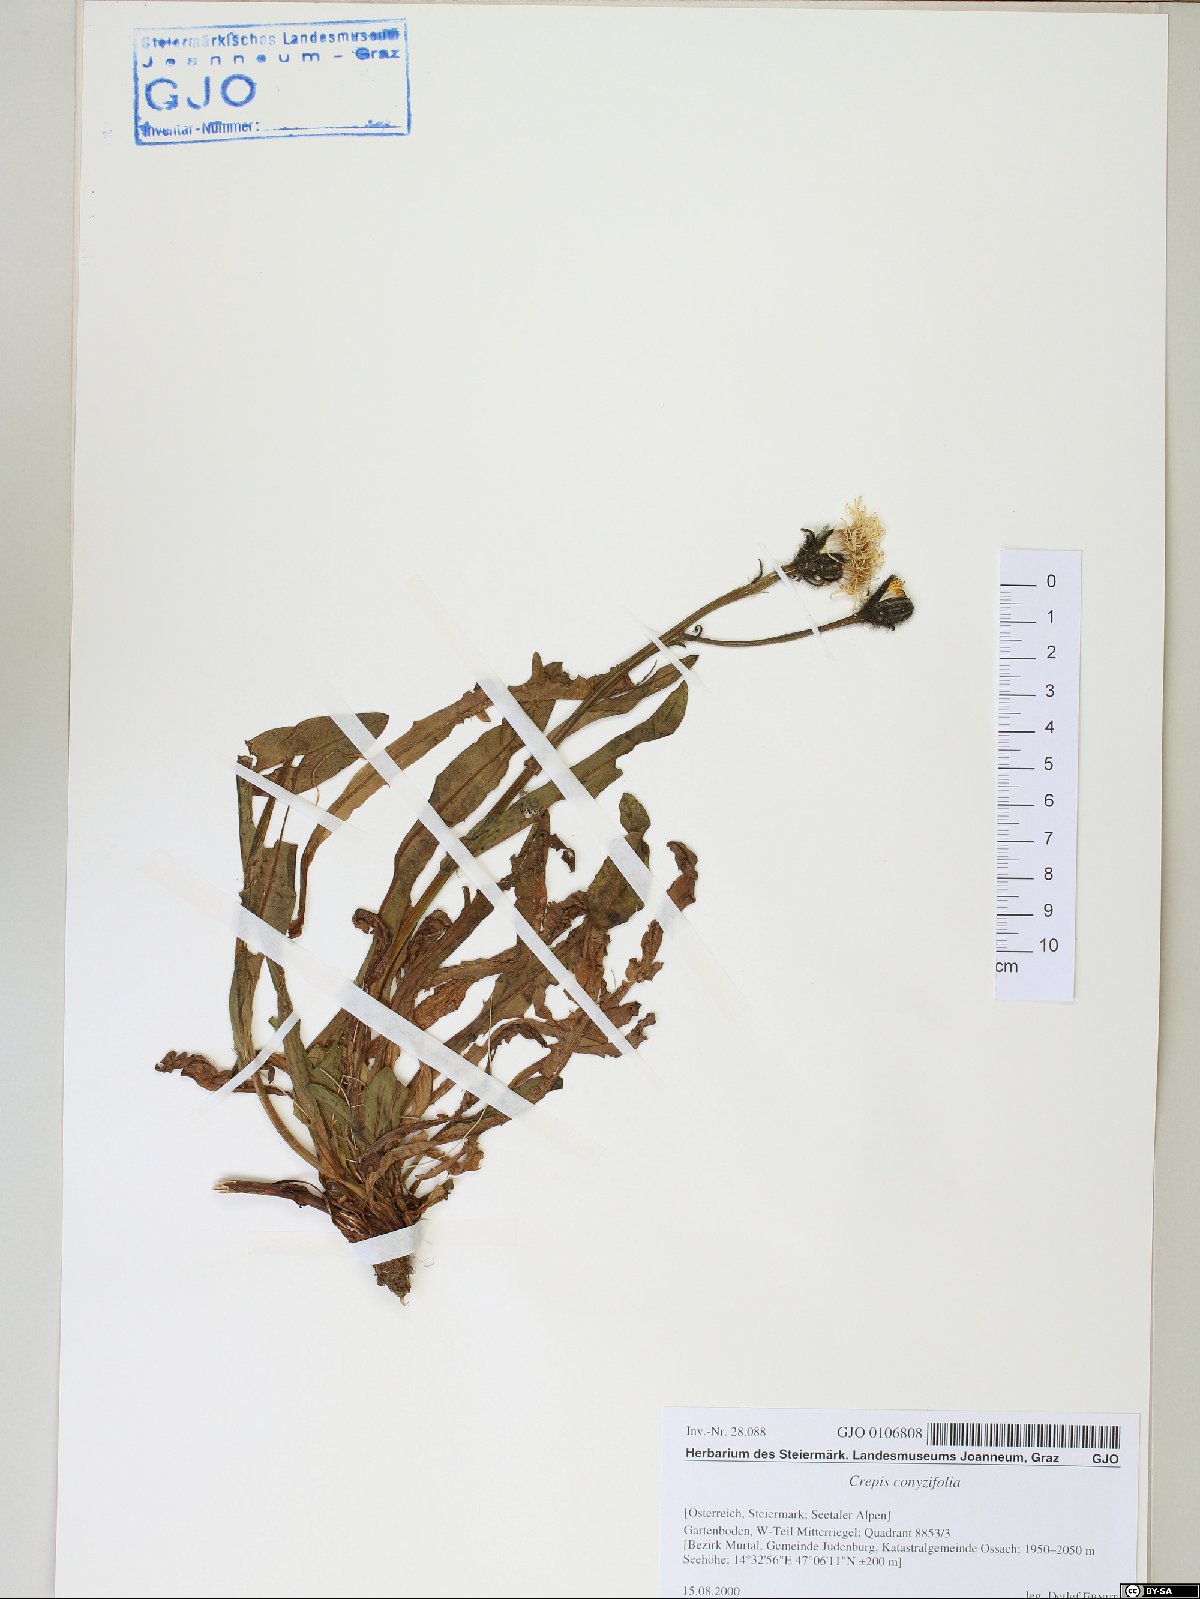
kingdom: Plantae
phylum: Tracheophyta
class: Magnoliopsida
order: Asterales
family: Asteraceae
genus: Crepis
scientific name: Crepis blattarioides
